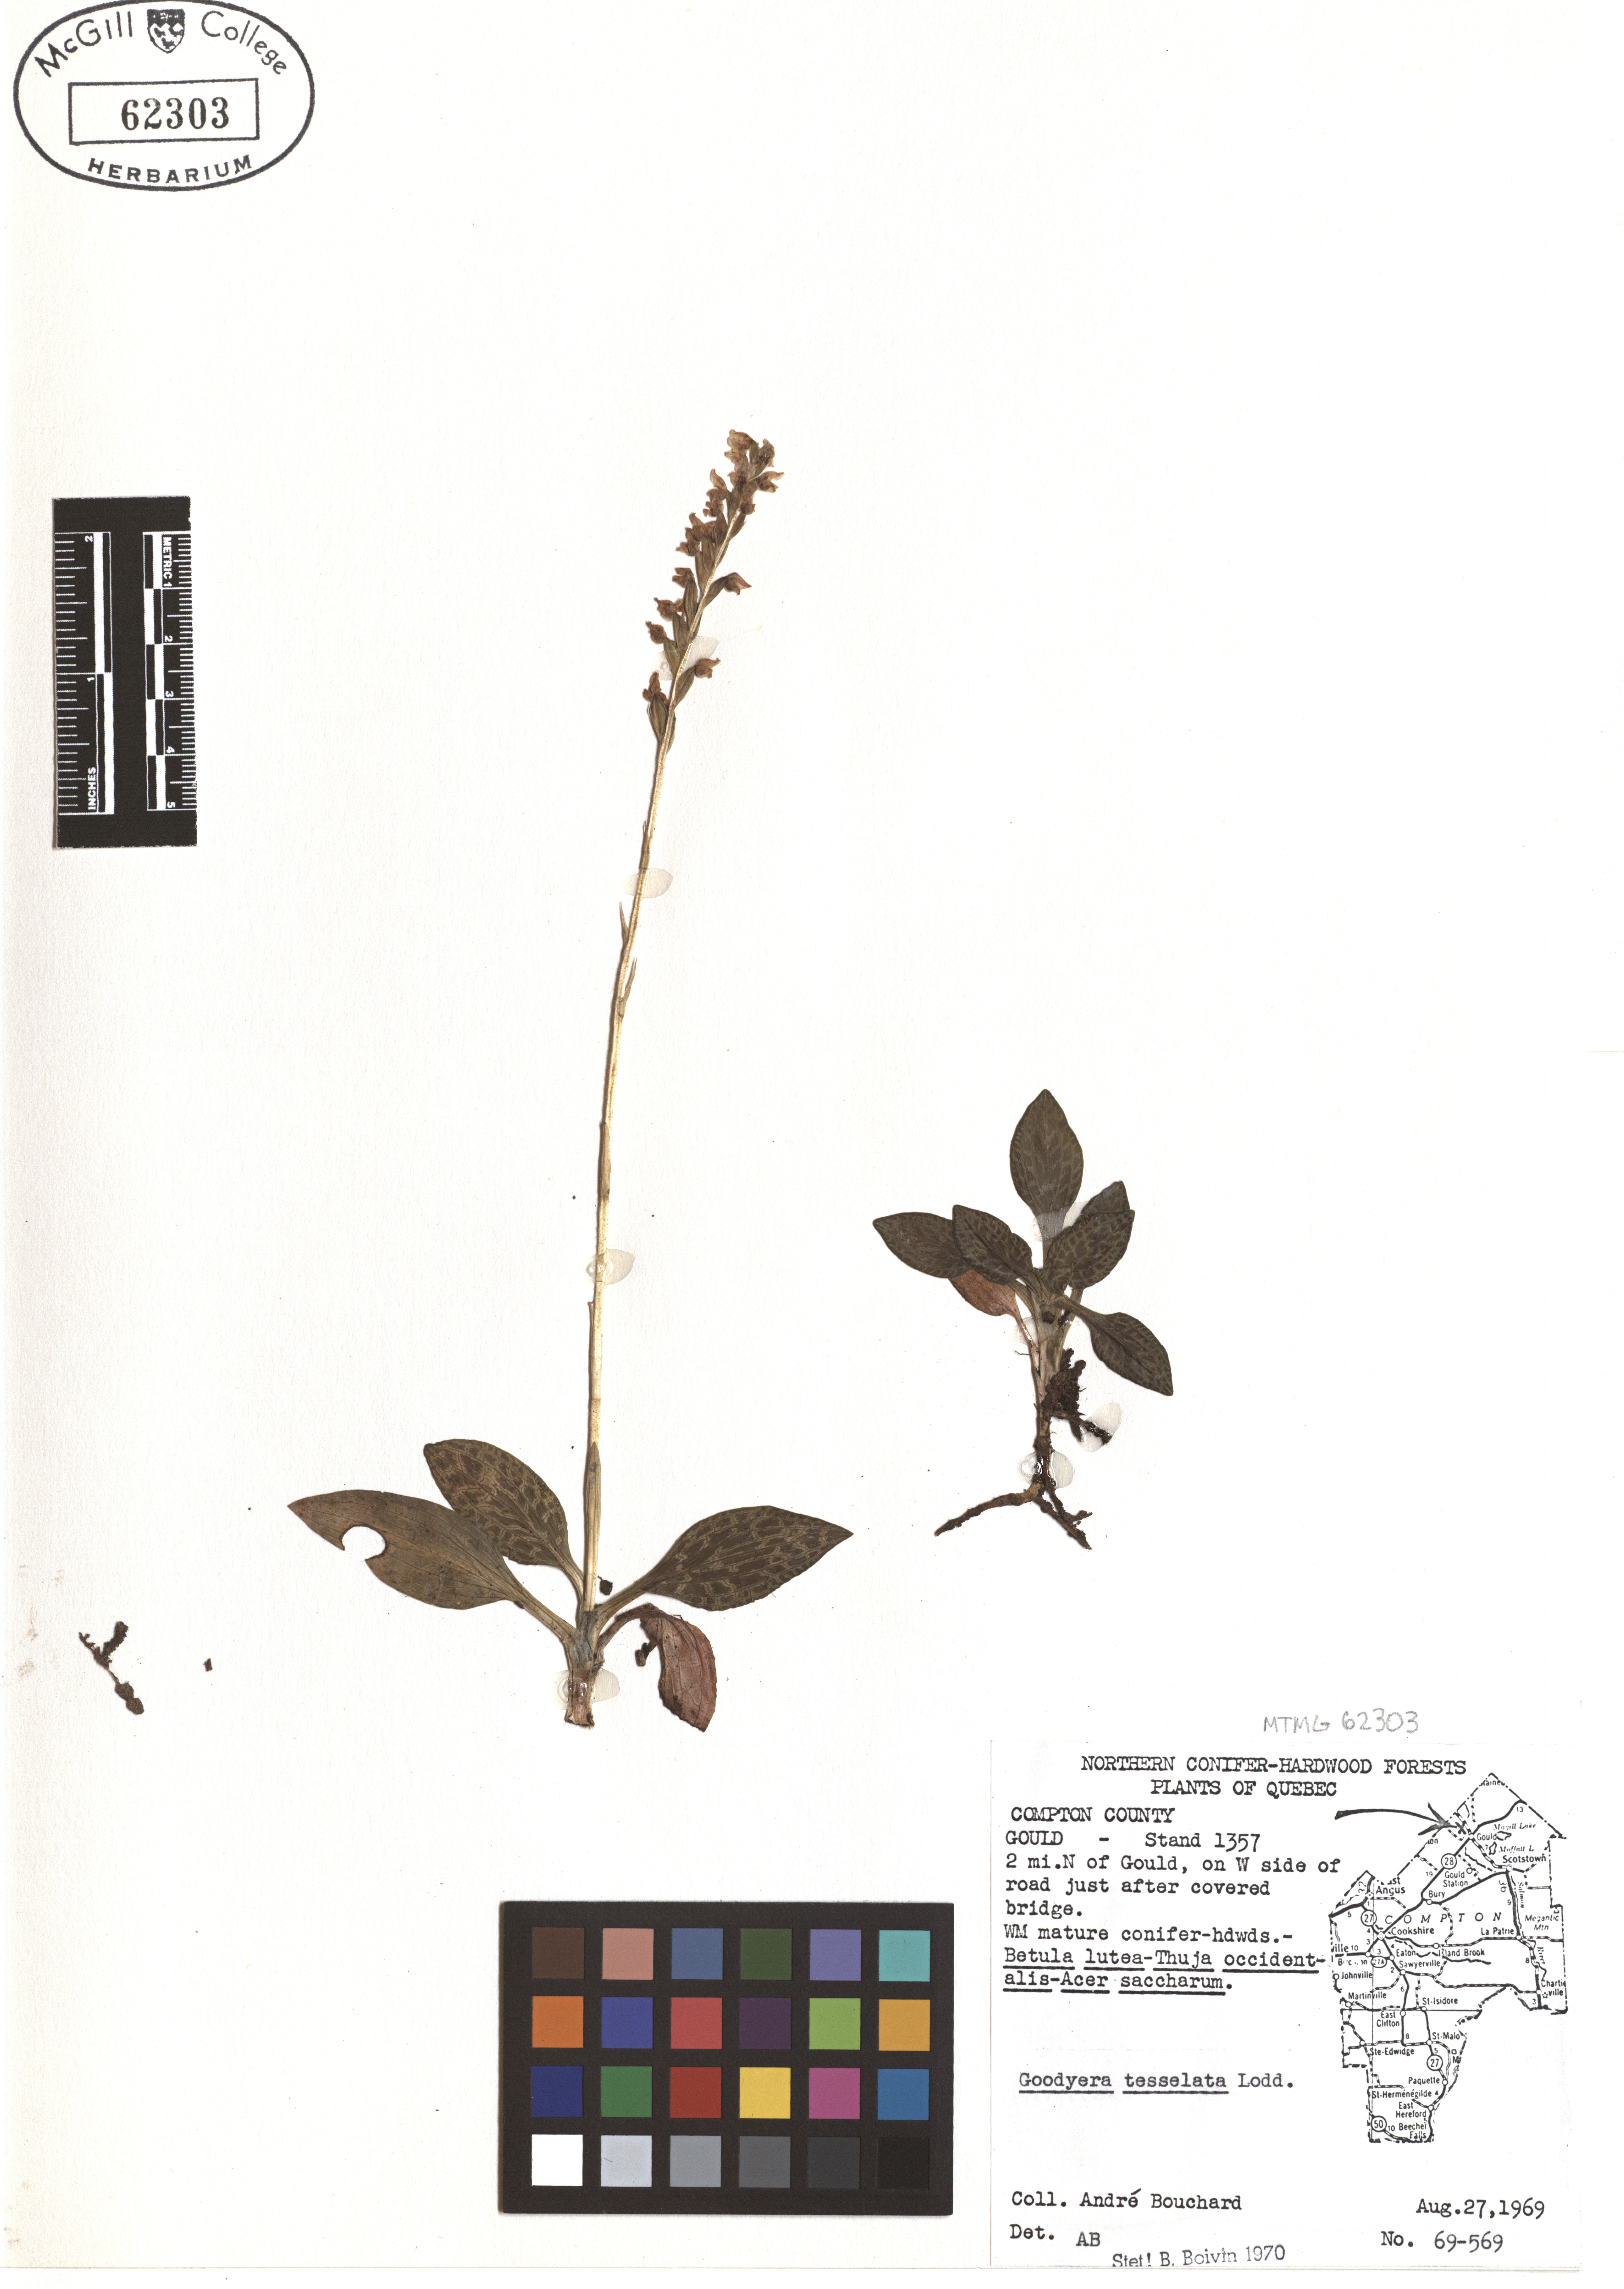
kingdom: Plantae
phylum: Tracheophyta
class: Liliopsida
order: Asparagales
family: Orchidaceae
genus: Goodyera
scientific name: Goodyera tesselata
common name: Checkered rattlesnake-plantain
